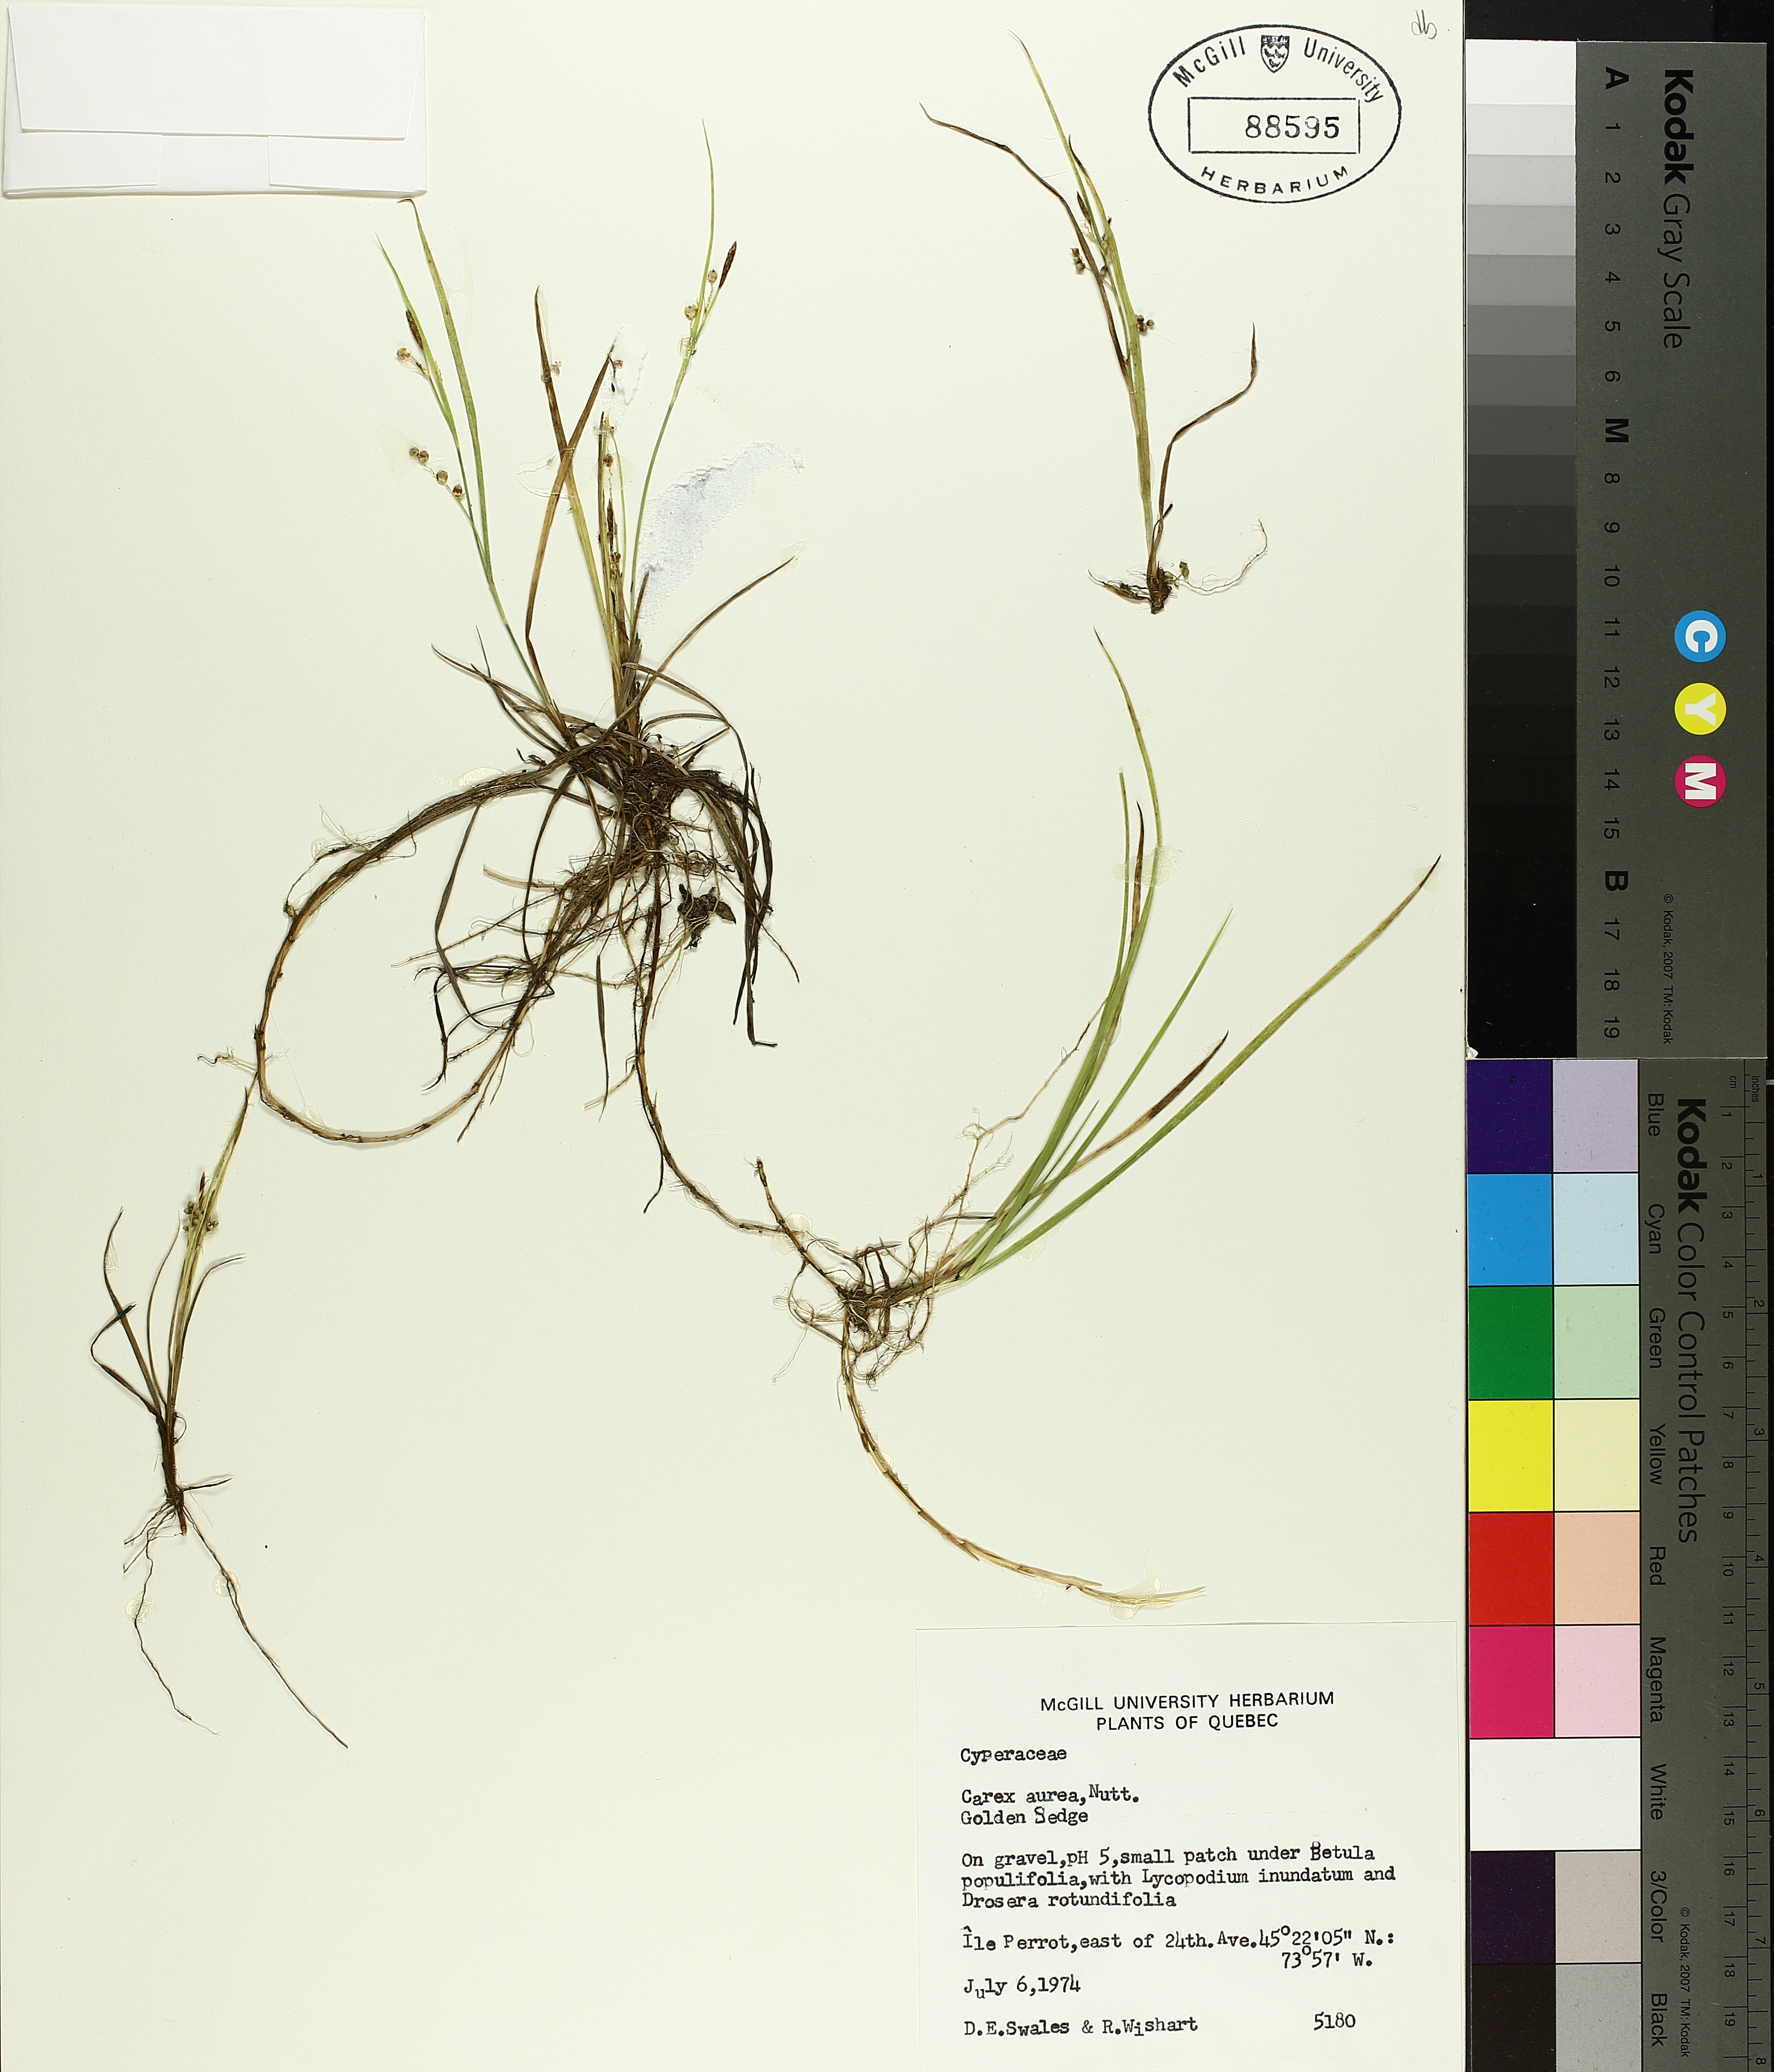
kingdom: Plantae
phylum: Tracheophyta
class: Liliopsida
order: Poales
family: Cyperaceae
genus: Carex
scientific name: Carex aurea
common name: Golden sedge
